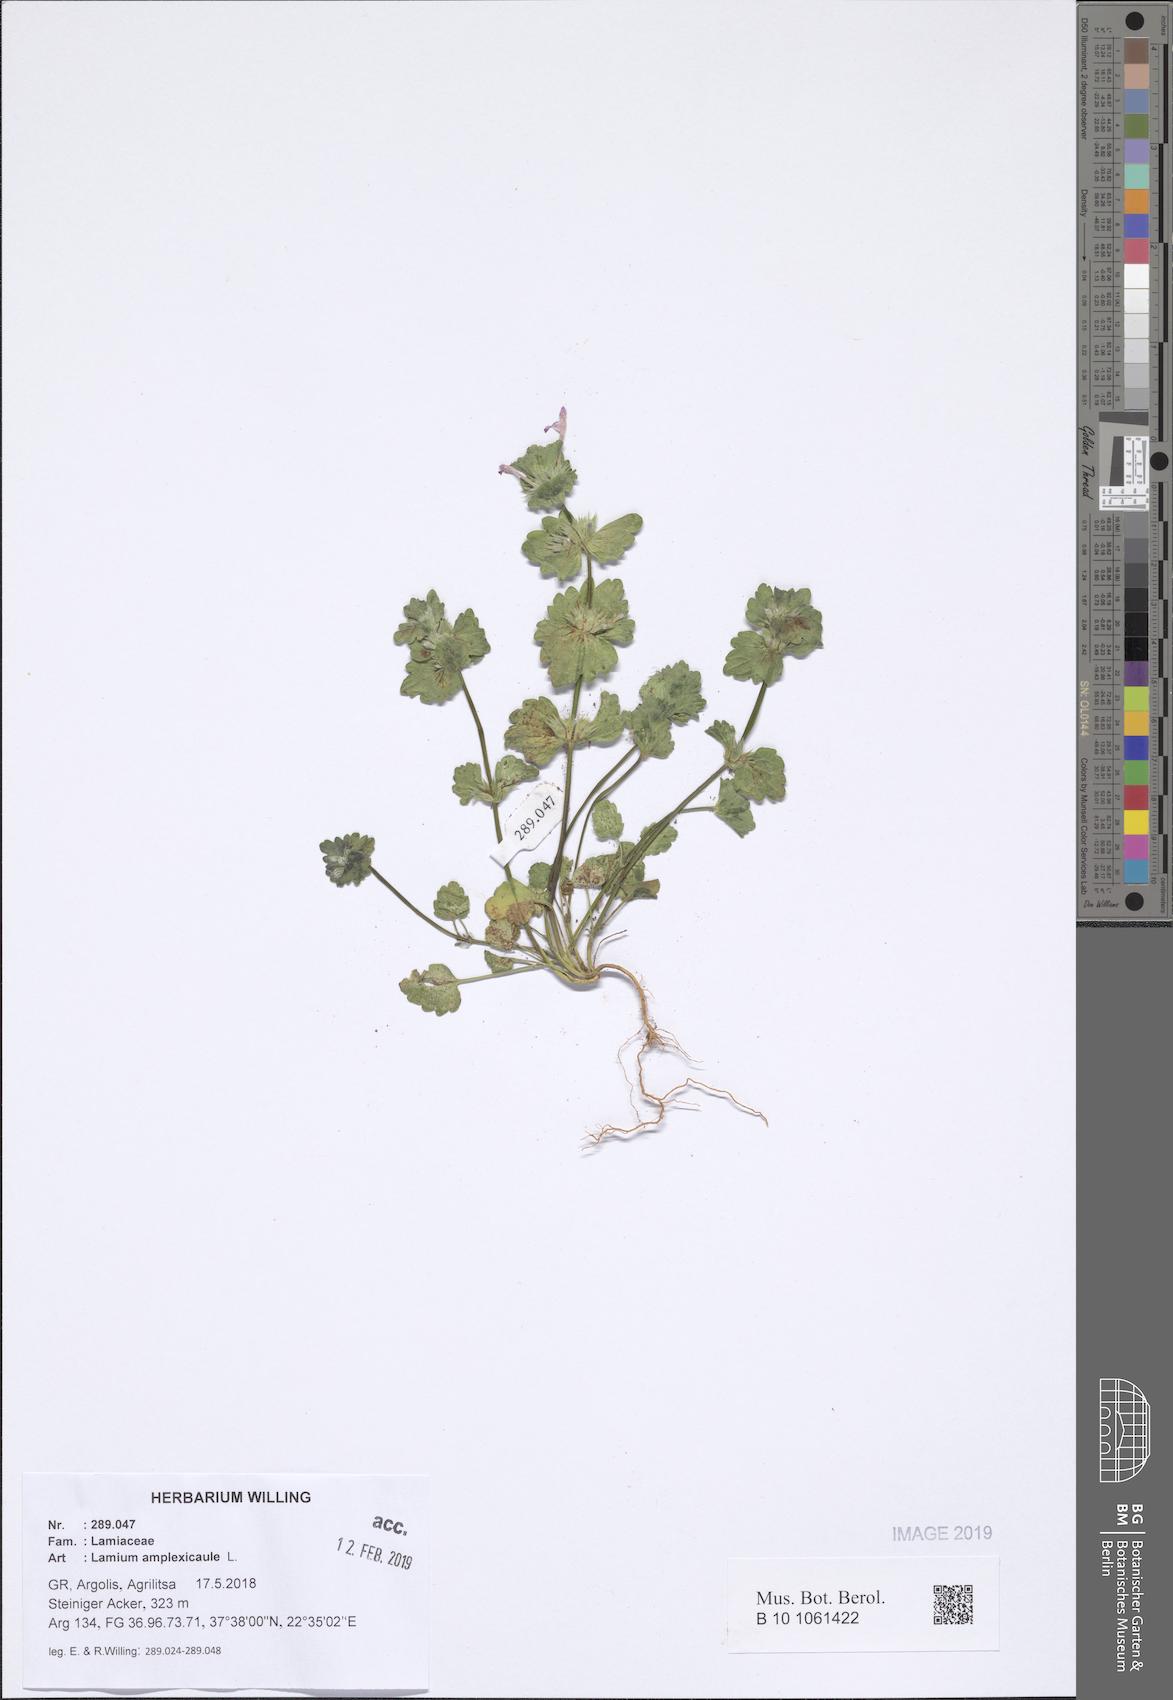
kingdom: Plantae
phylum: Tracheophyta
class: Magnoliopsida
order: Lamiales
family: Lamiaceae
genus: Lamium
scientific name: Lamium amplexicaule
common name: Henbit dead-nettle
